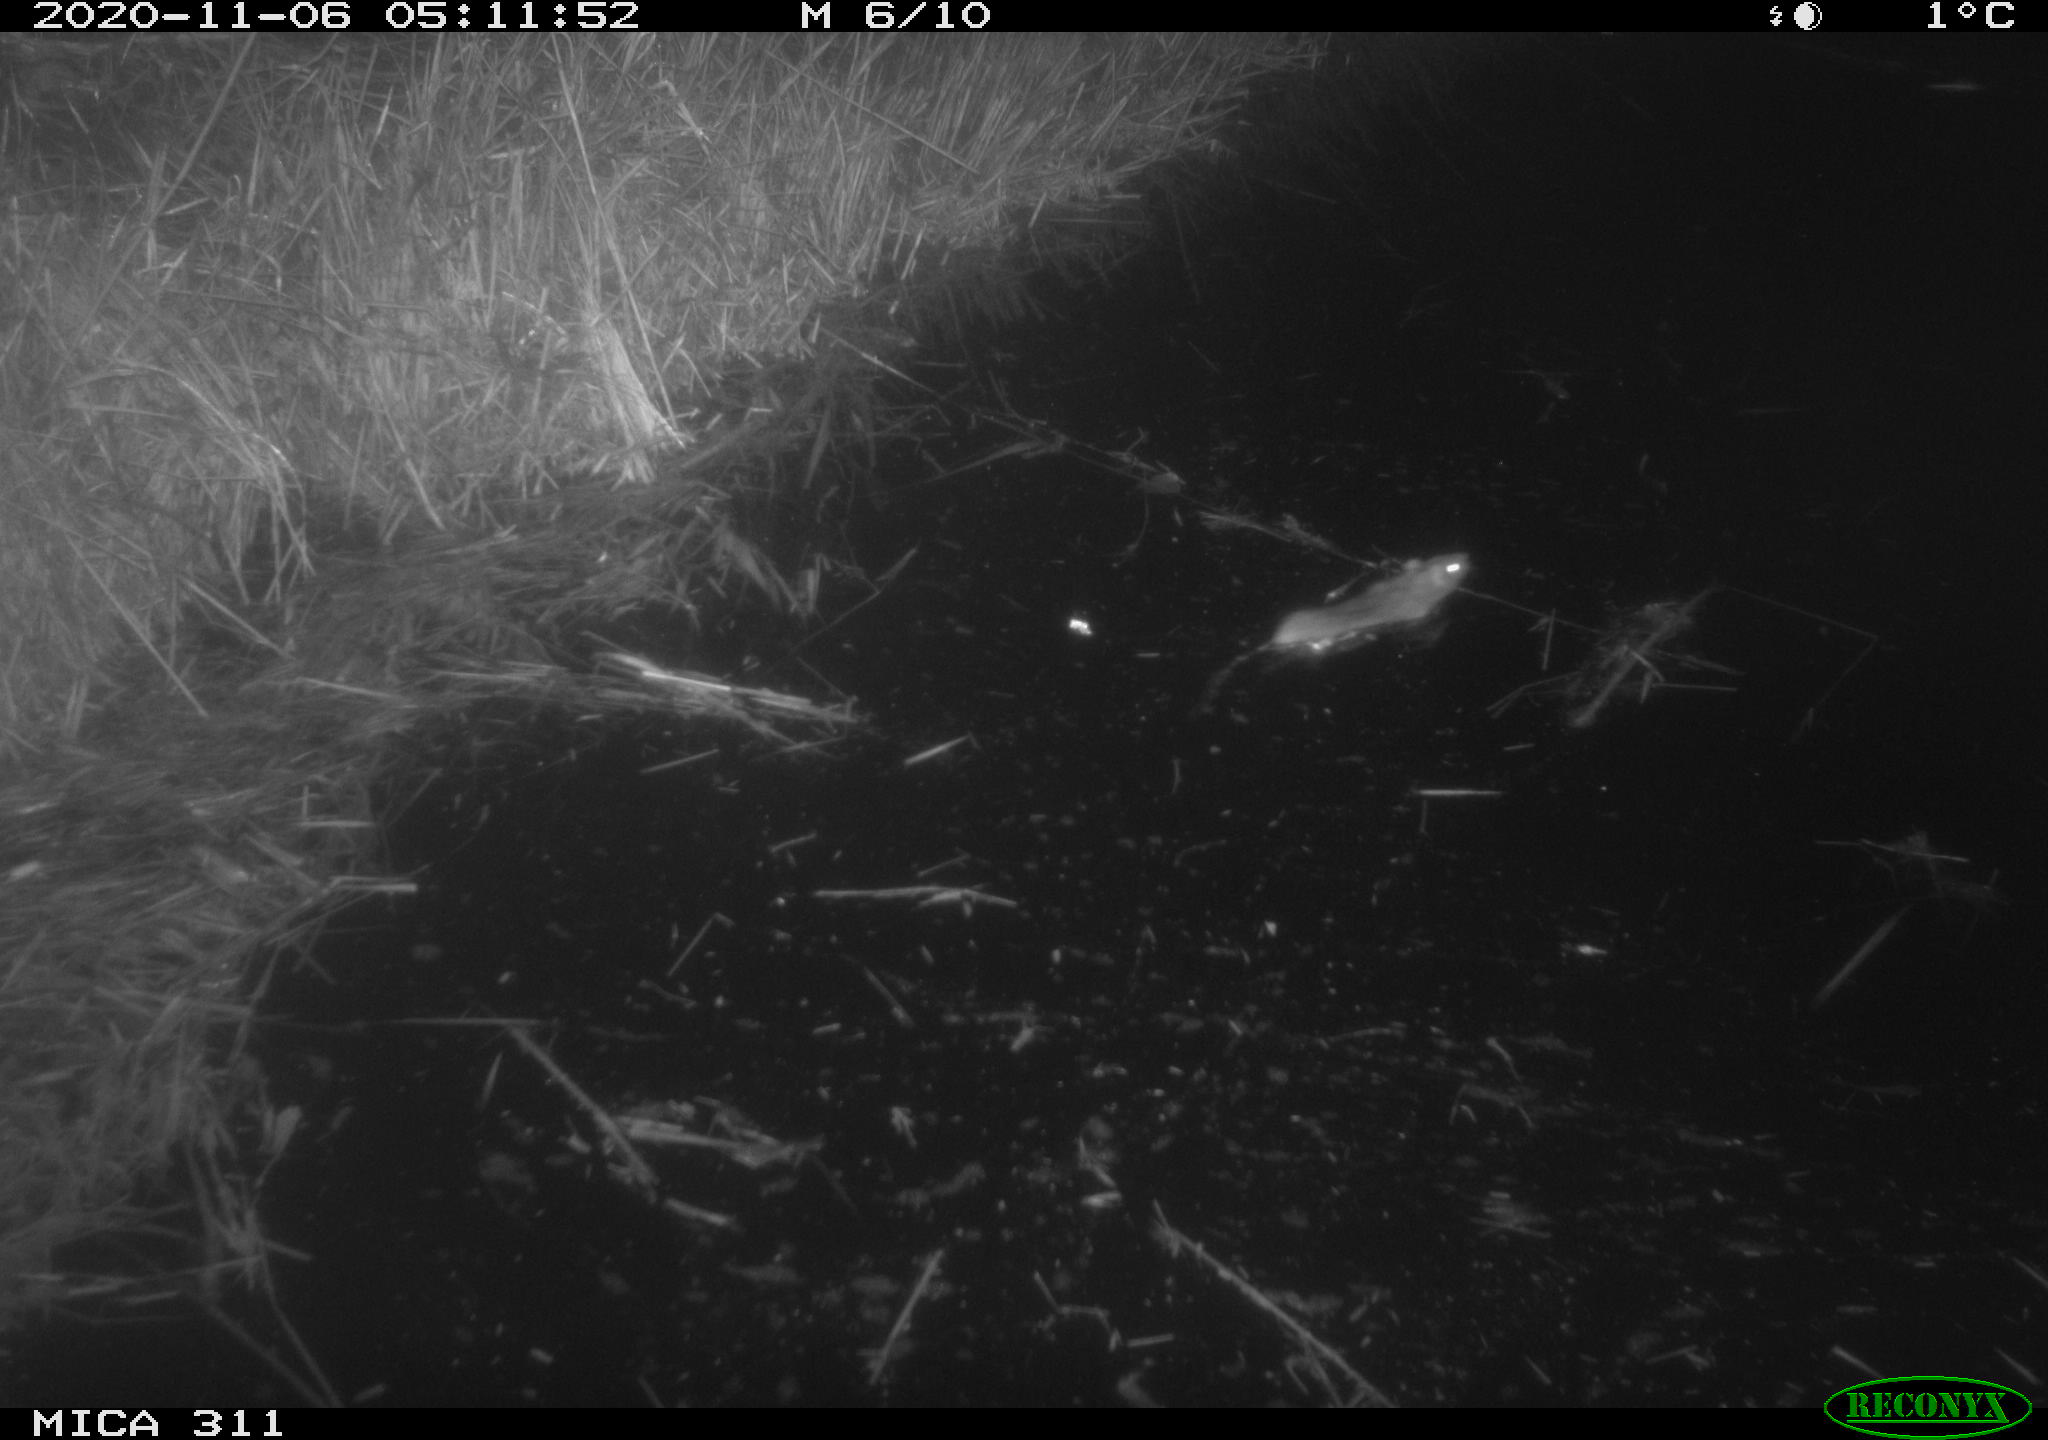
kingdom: Animalia
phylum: Chordata
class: Mammalia
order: Rodentia
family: Muridae
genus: Rattus
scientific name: Rattus norvegicus
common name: Brown rat
